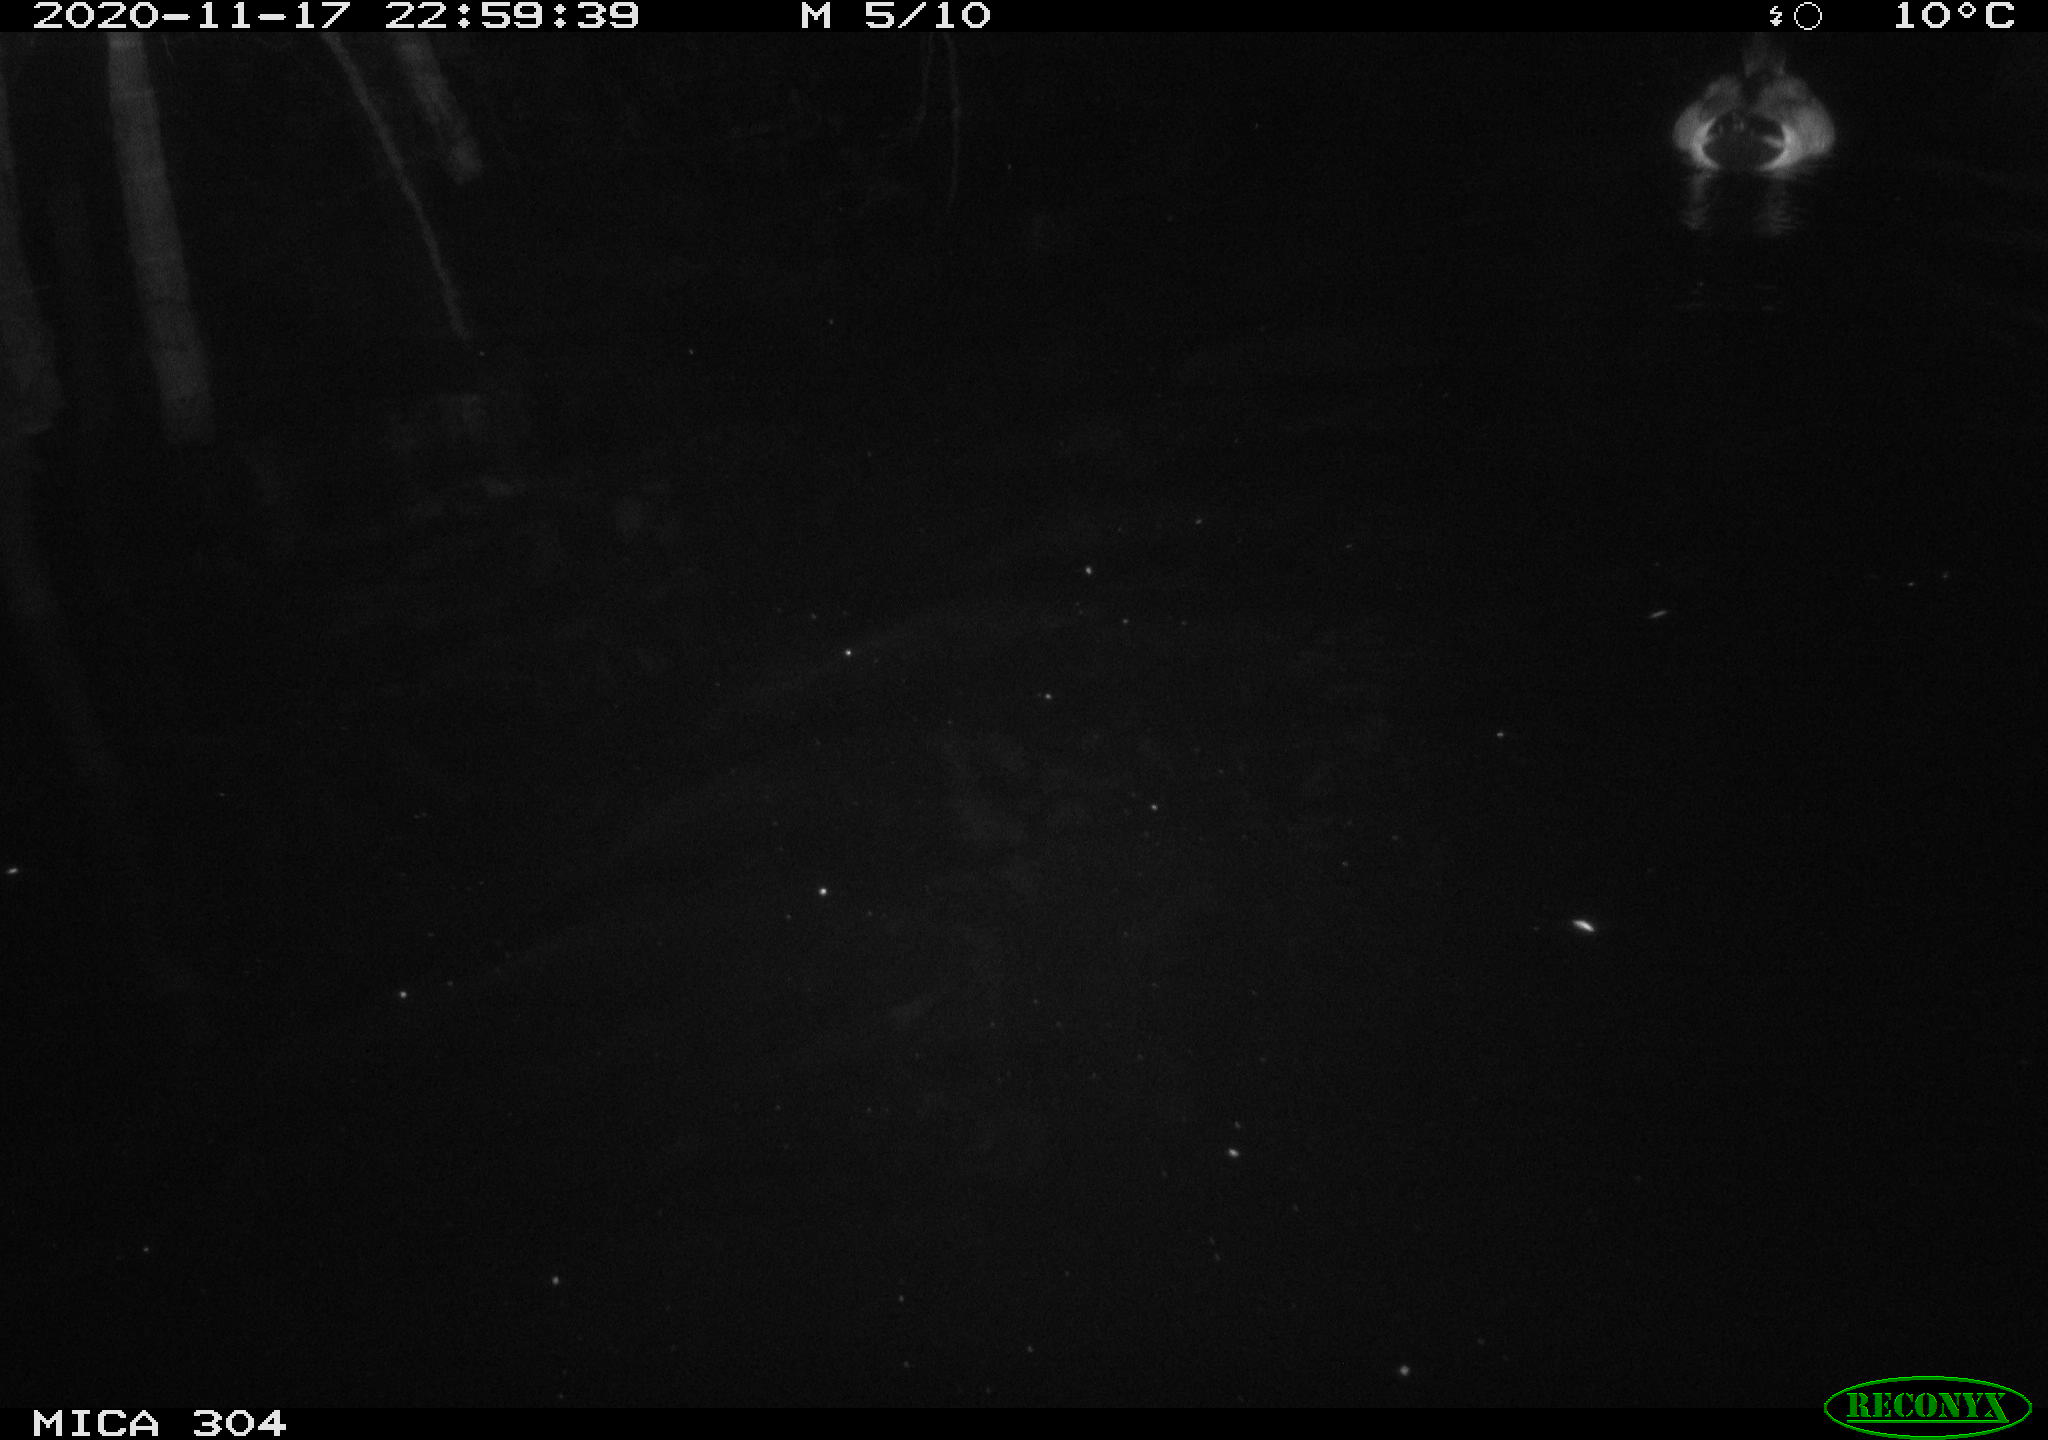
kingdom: Animalia
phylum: Chordata
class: Aves
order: Anseriformes
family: Anatidae
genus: Anas
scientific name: Anas platyrhynchos
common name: Mallard
